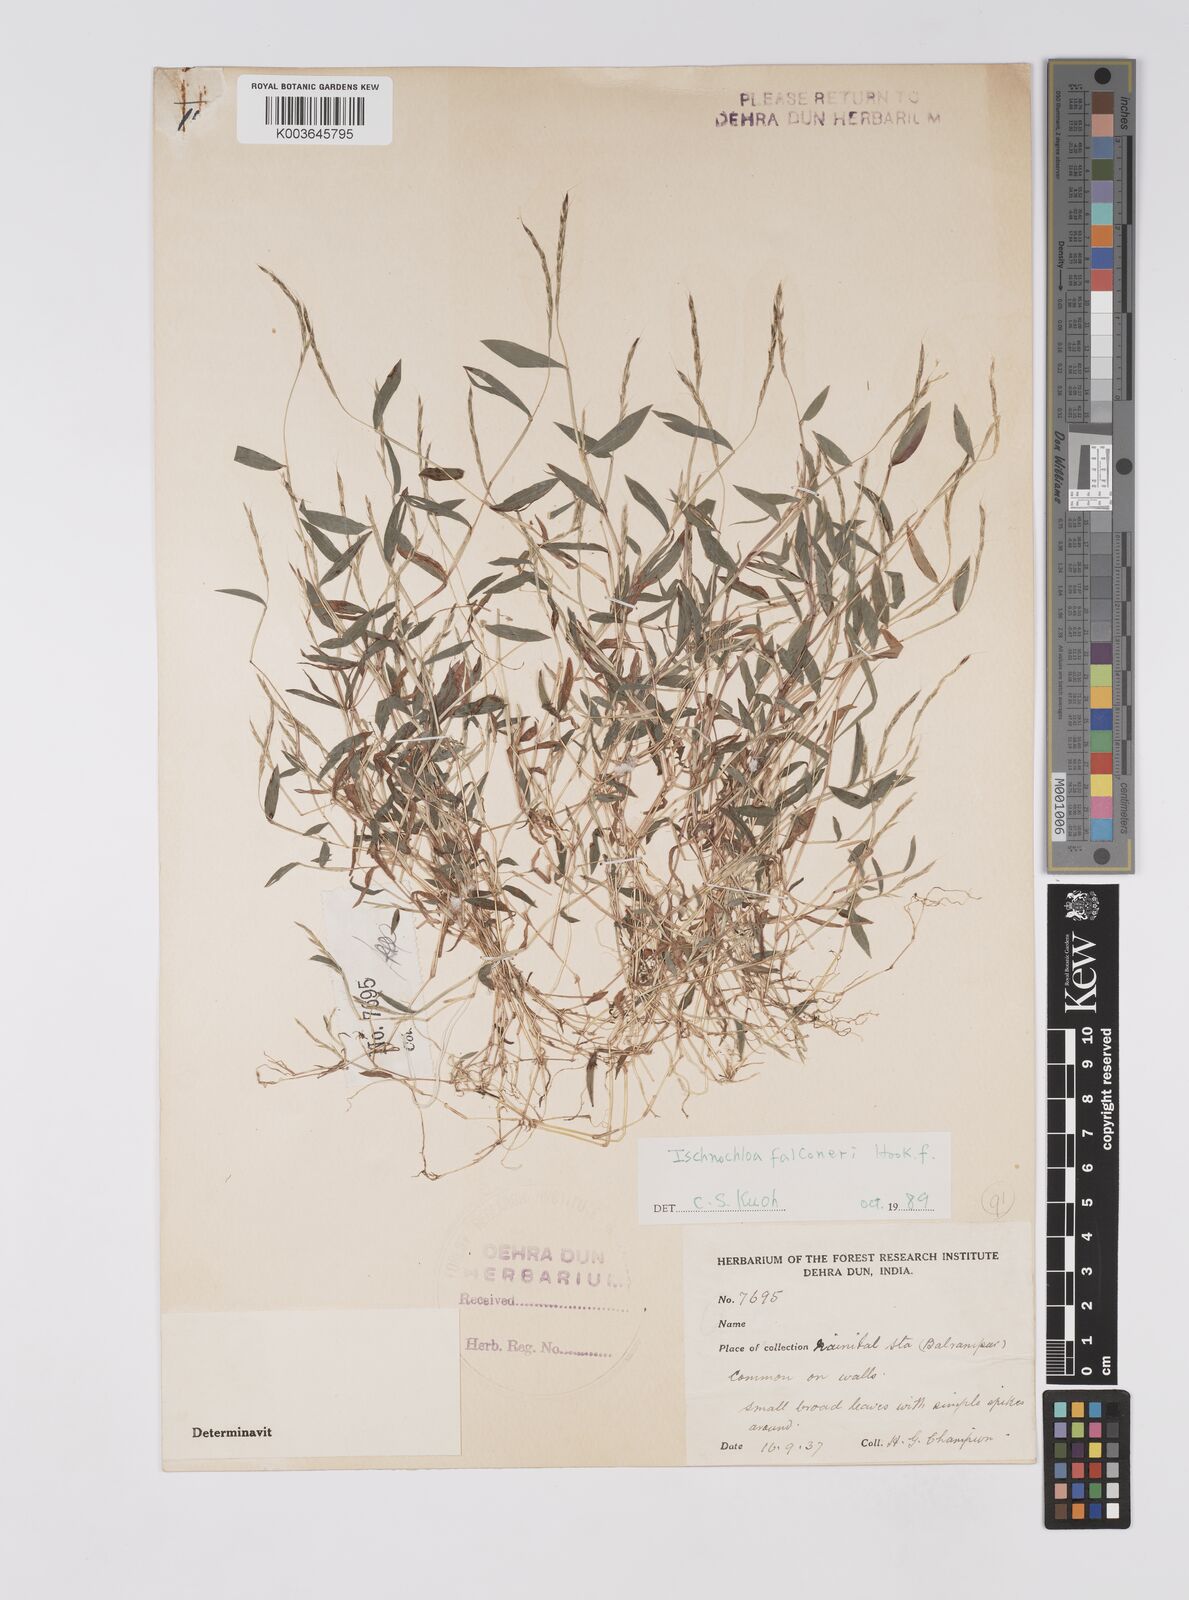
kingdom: Plantae
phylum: Tracheophyta
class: Liliopsida
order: Poales
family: Poaceae
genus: Microstegium
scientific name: Microstegium falconeri
